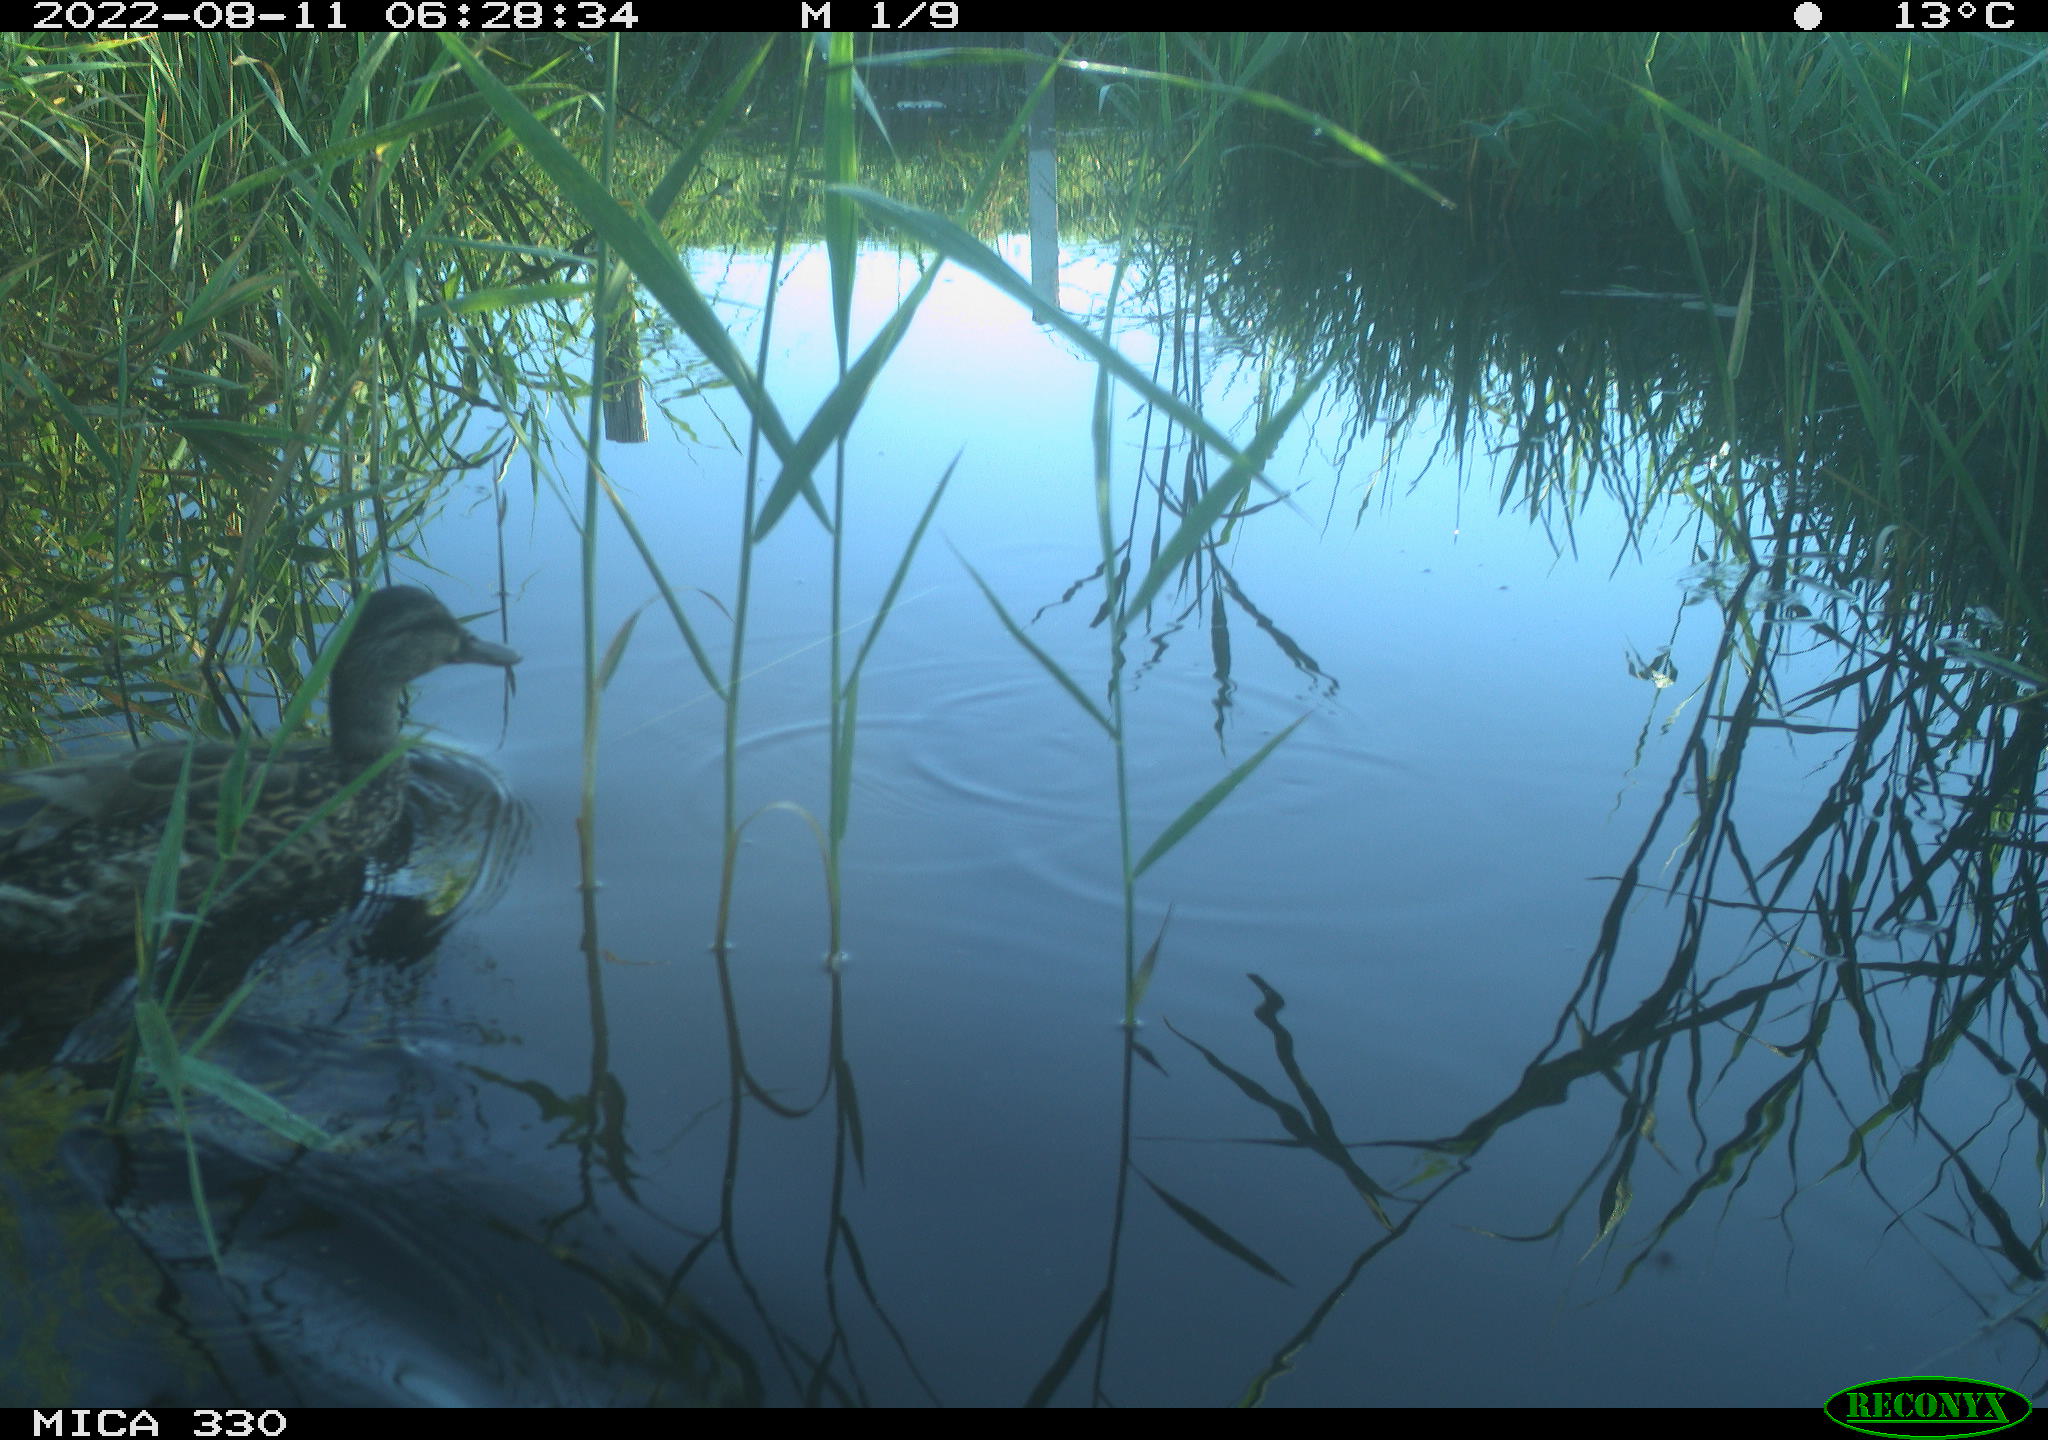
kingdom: Animalia
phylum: Chordata
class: Aves
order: Anseriformes
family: Anatidae
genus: Mareca
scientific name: Mareca strepera
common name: Gadwall
